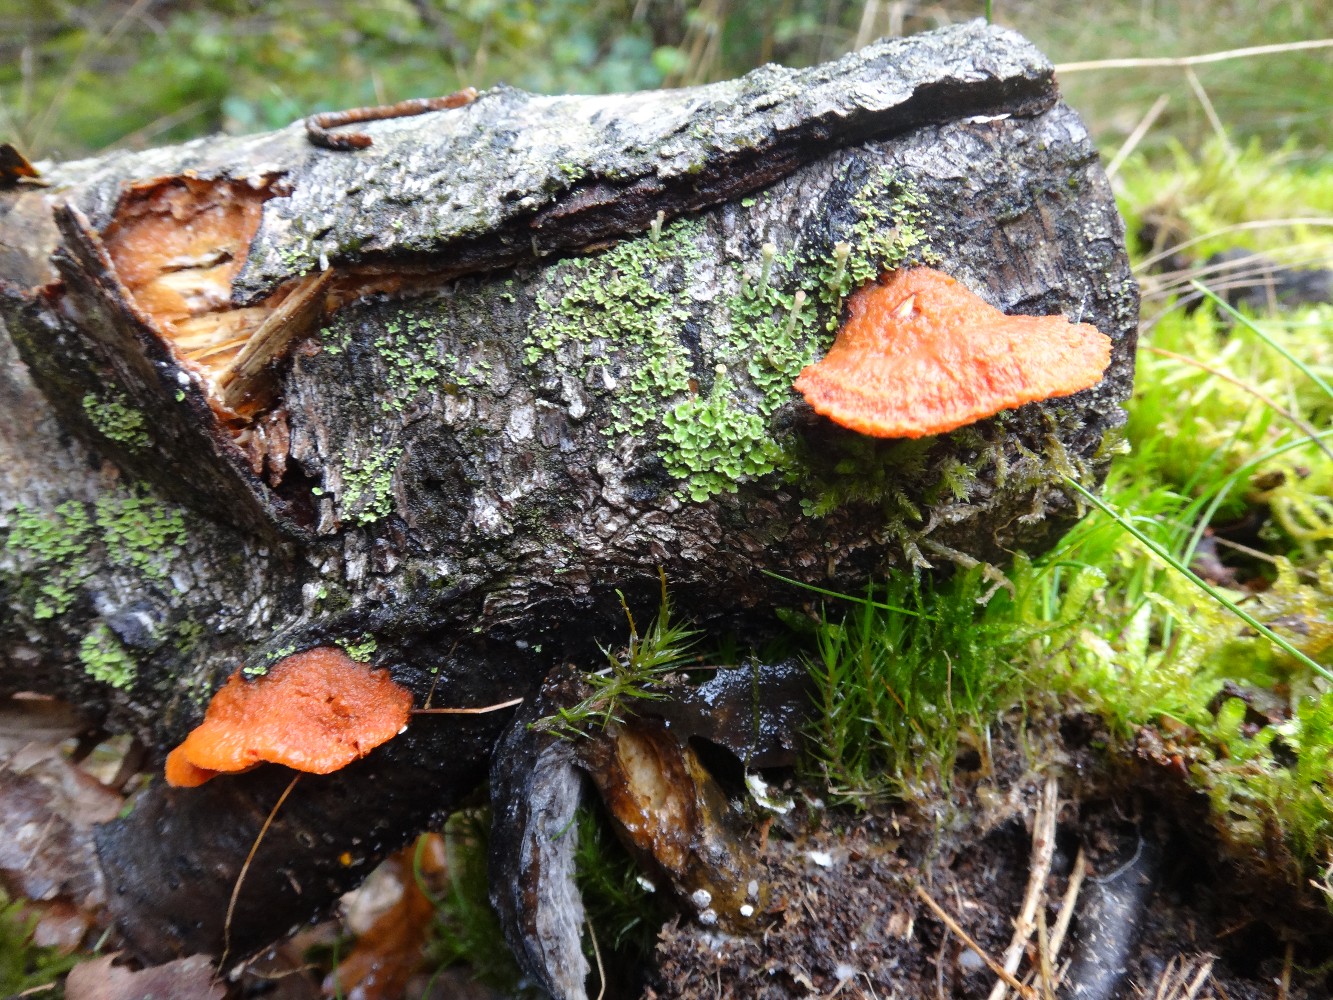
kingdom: Fungi
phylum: Basidiomycota
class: Agaricomycetes
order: Polyporales
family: Polyporaceae
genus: Trametes
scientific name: Trametes cinnabarina
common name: cinnoberporesvamp
